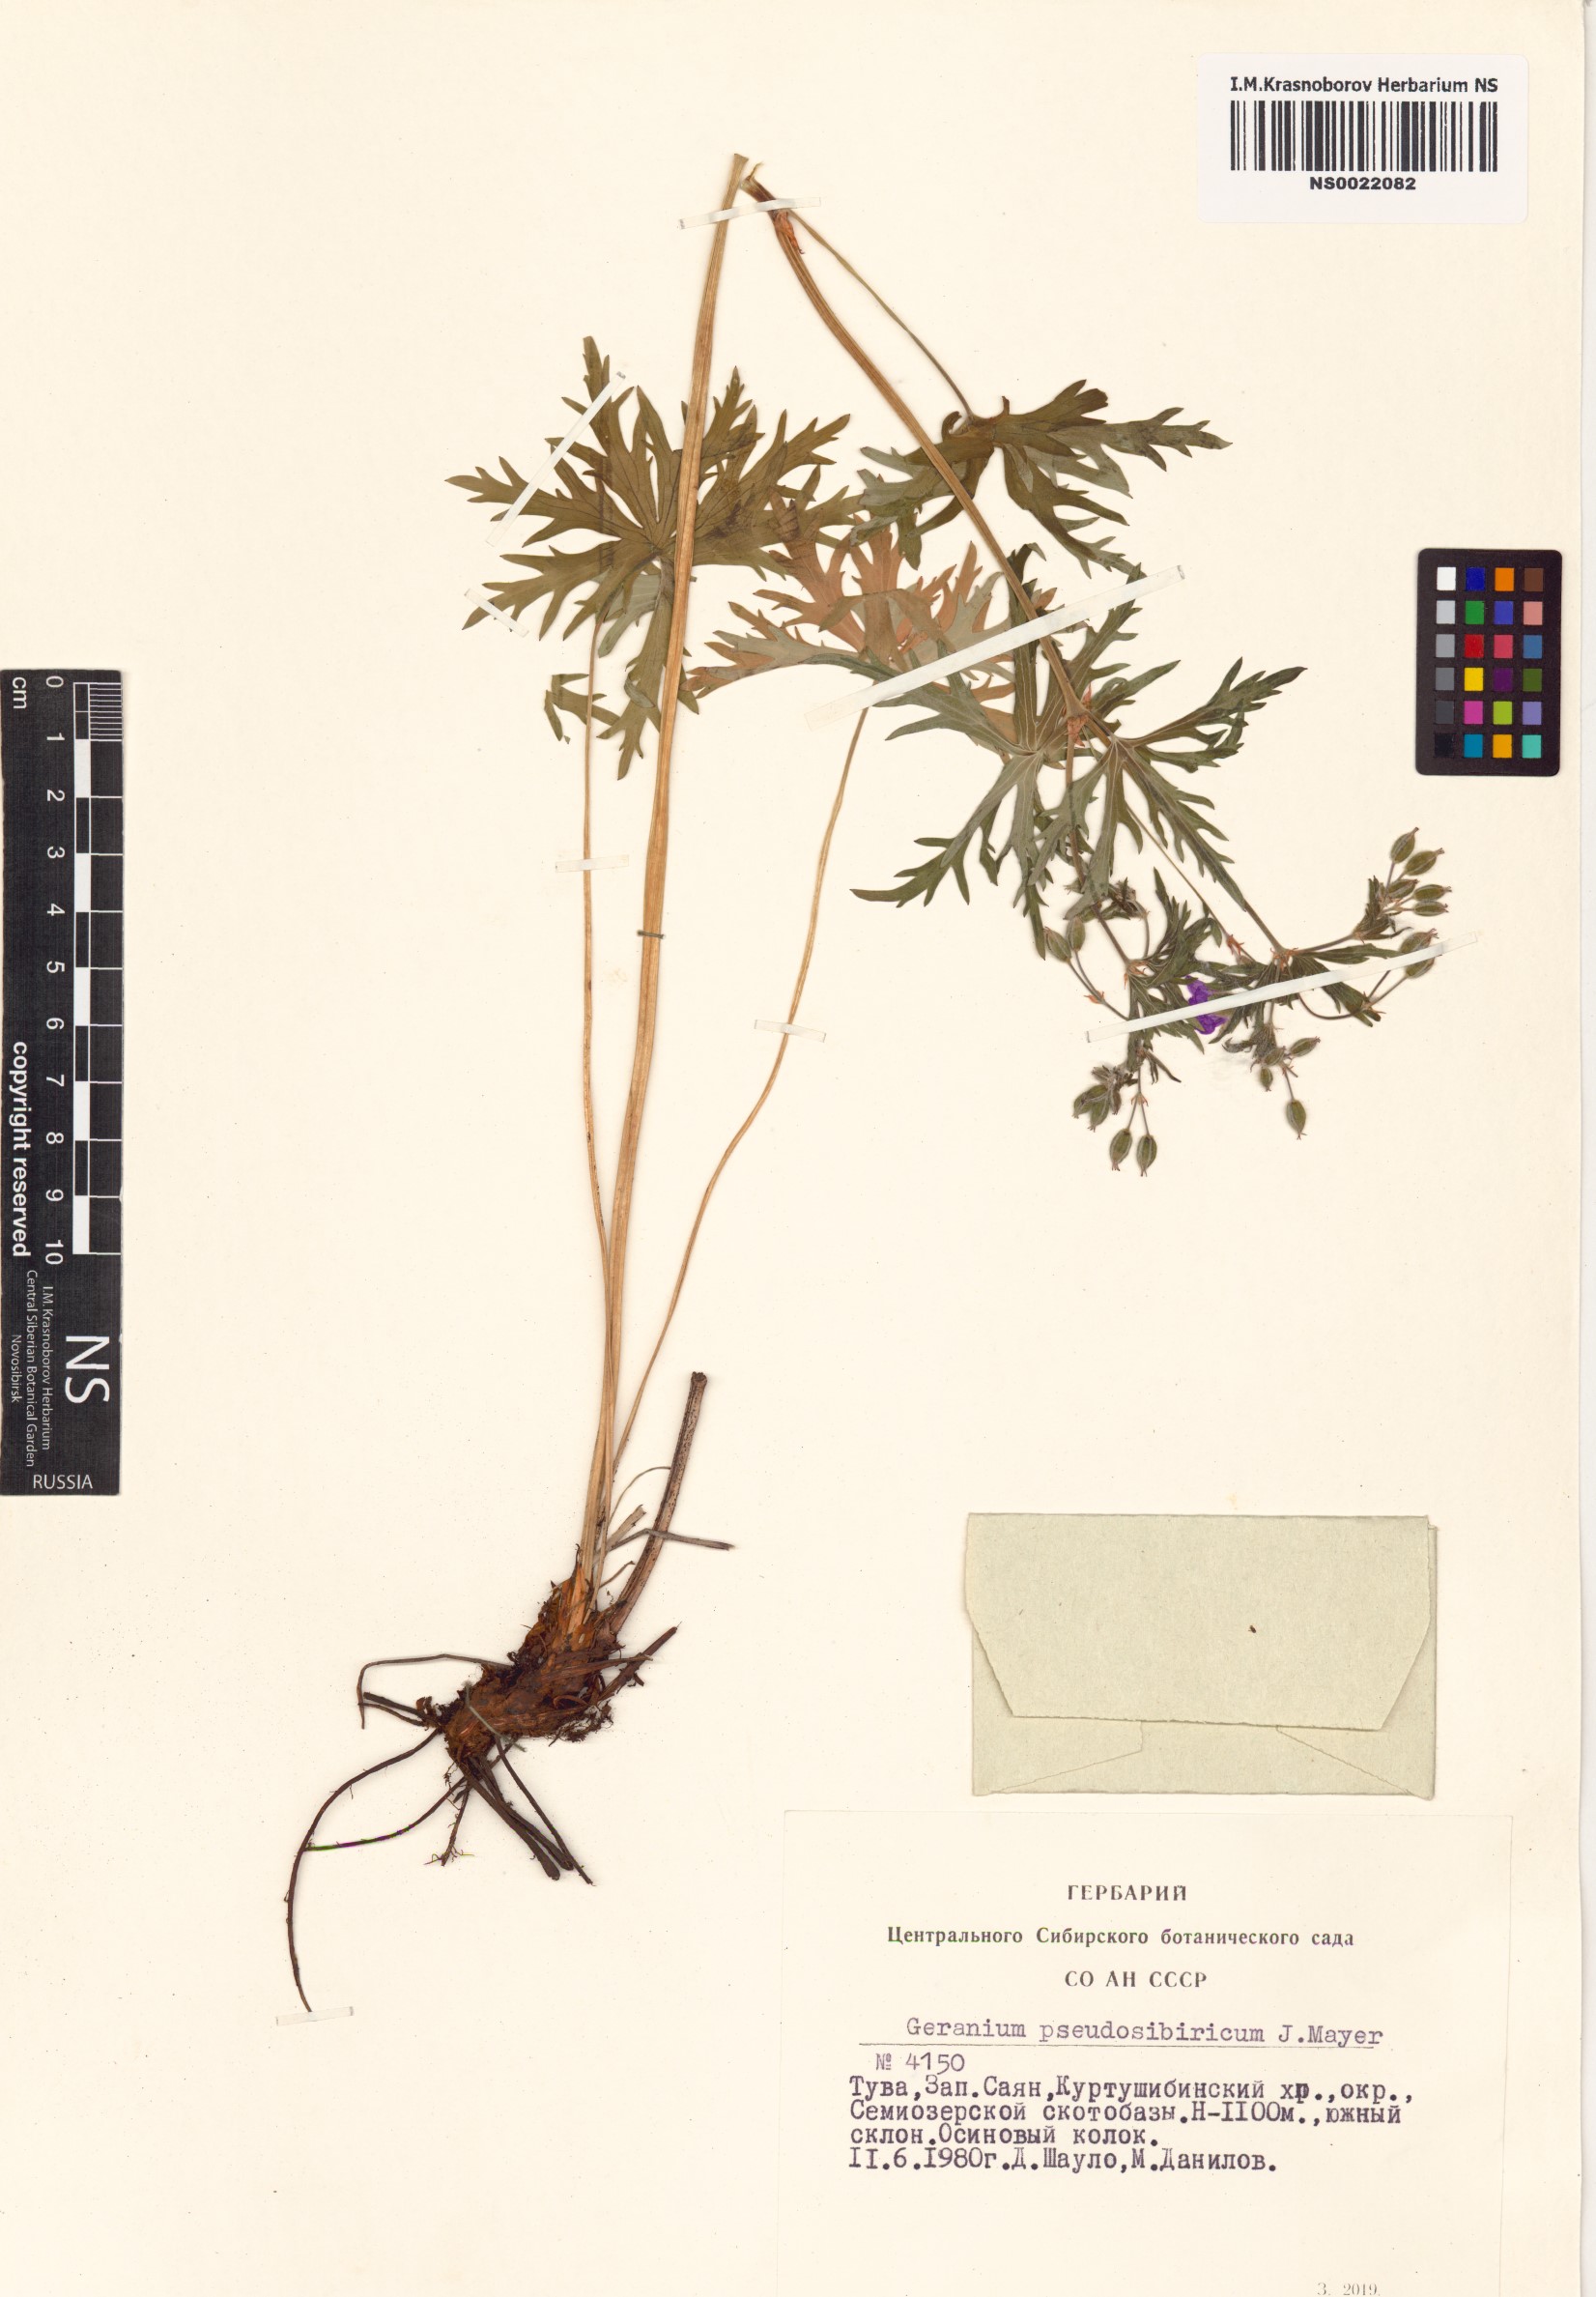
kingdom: Plantae
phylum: Tracheophyta
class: Magnoliopsida
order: Geraniales
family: Geraniaceae
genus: Geranium
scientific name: Geranium pseudosibiricum
